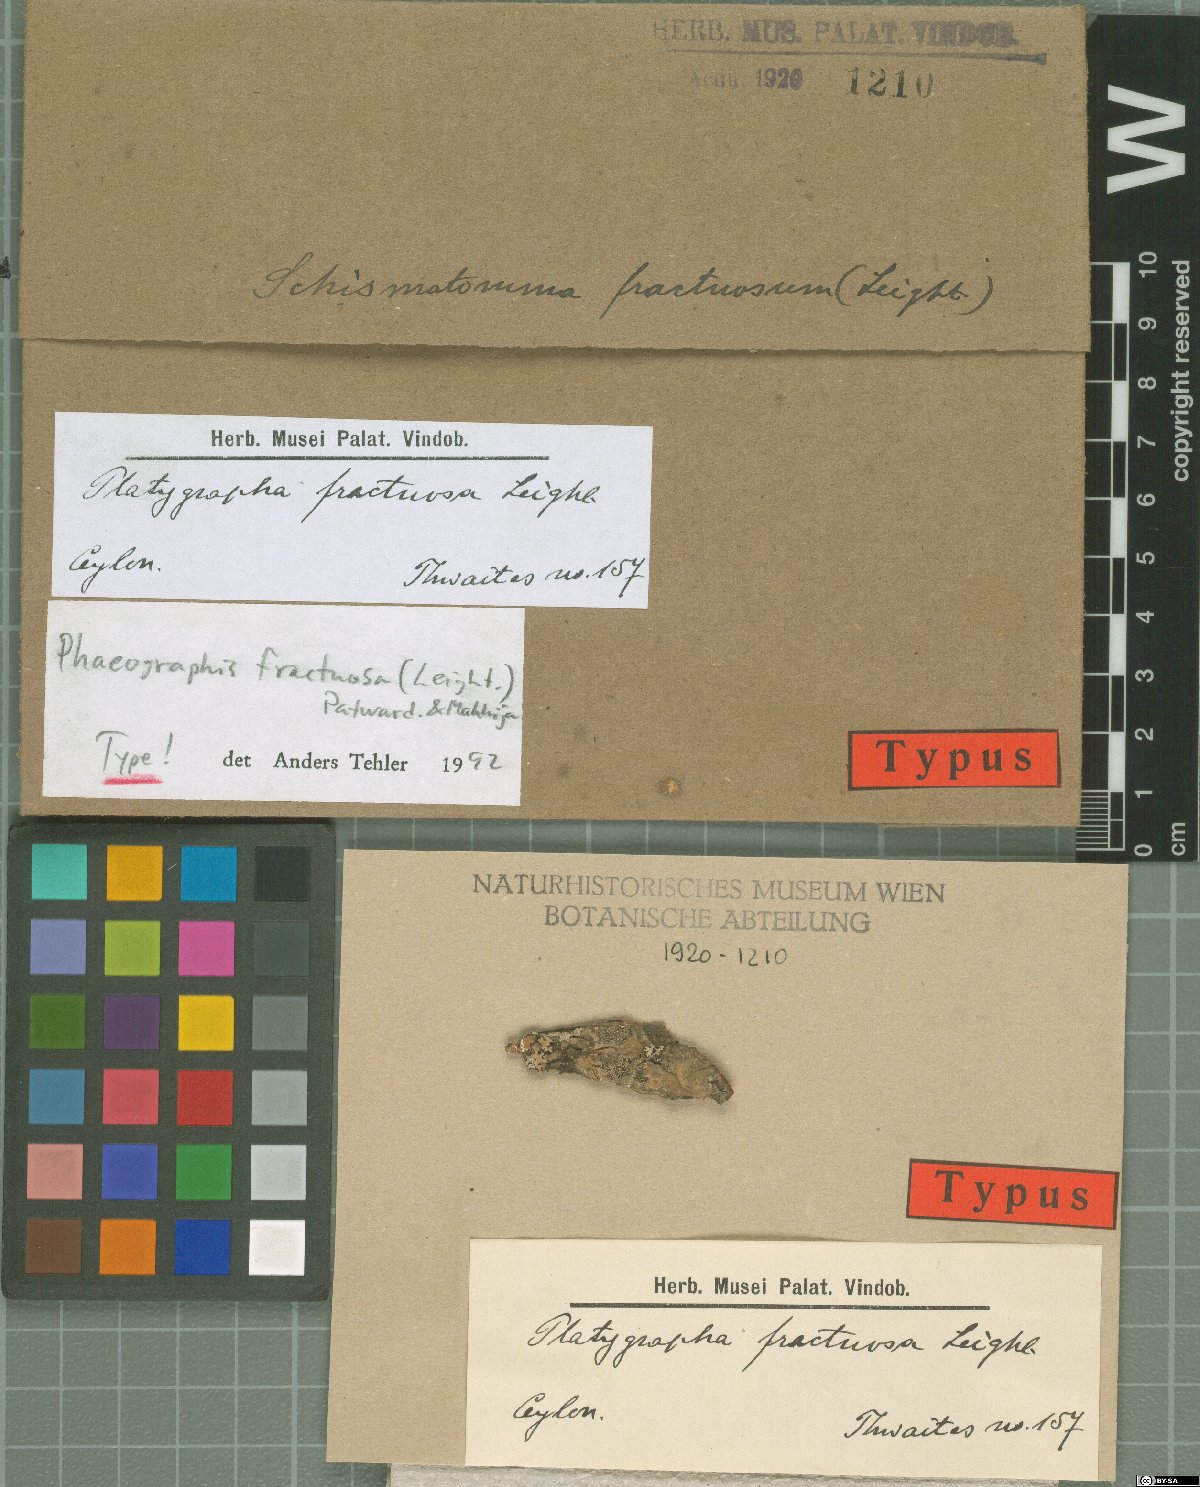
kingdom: Fungi
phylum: Ascomycota
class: Lecanoromycetes
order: Ostropales
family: Graphidaceae
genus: Platygrapha
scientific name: Platygrapha
